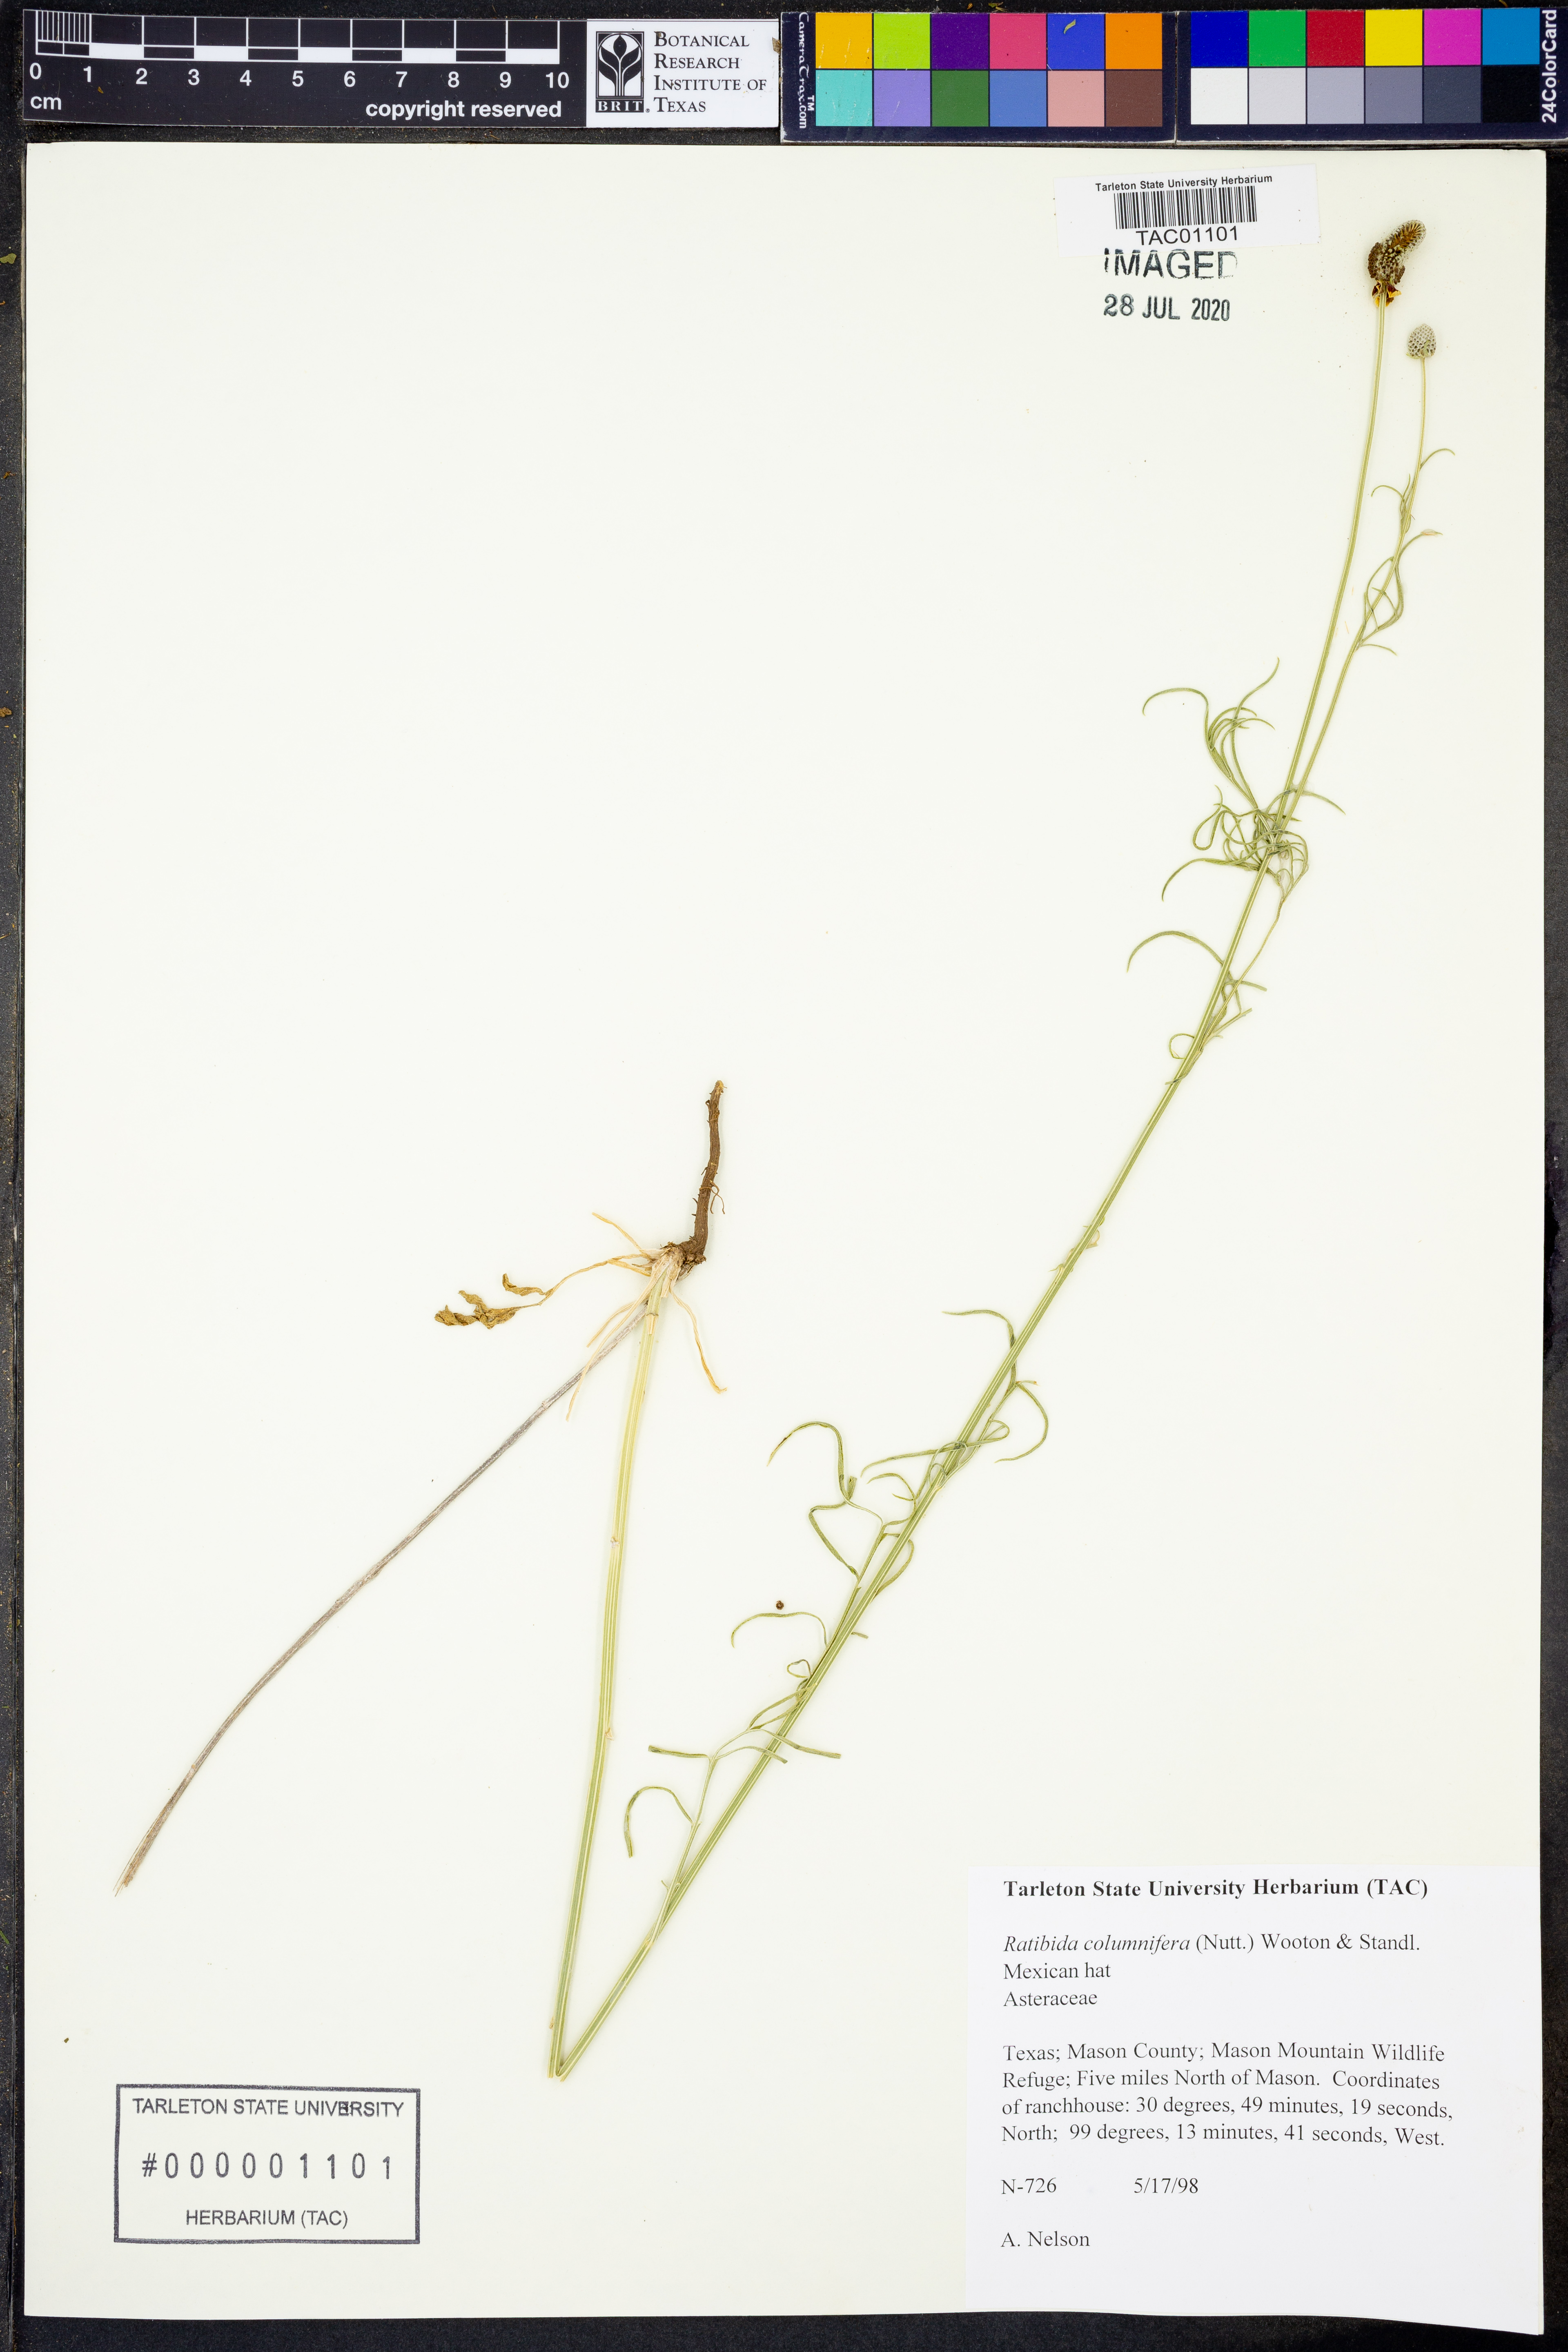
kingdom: Plantae
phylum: Tracheophyta
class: Magnoliopsida
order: Asterales
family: Asteraceae
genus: Ratibida
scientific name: Ratibida columnifera
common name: Prairie coneflower
